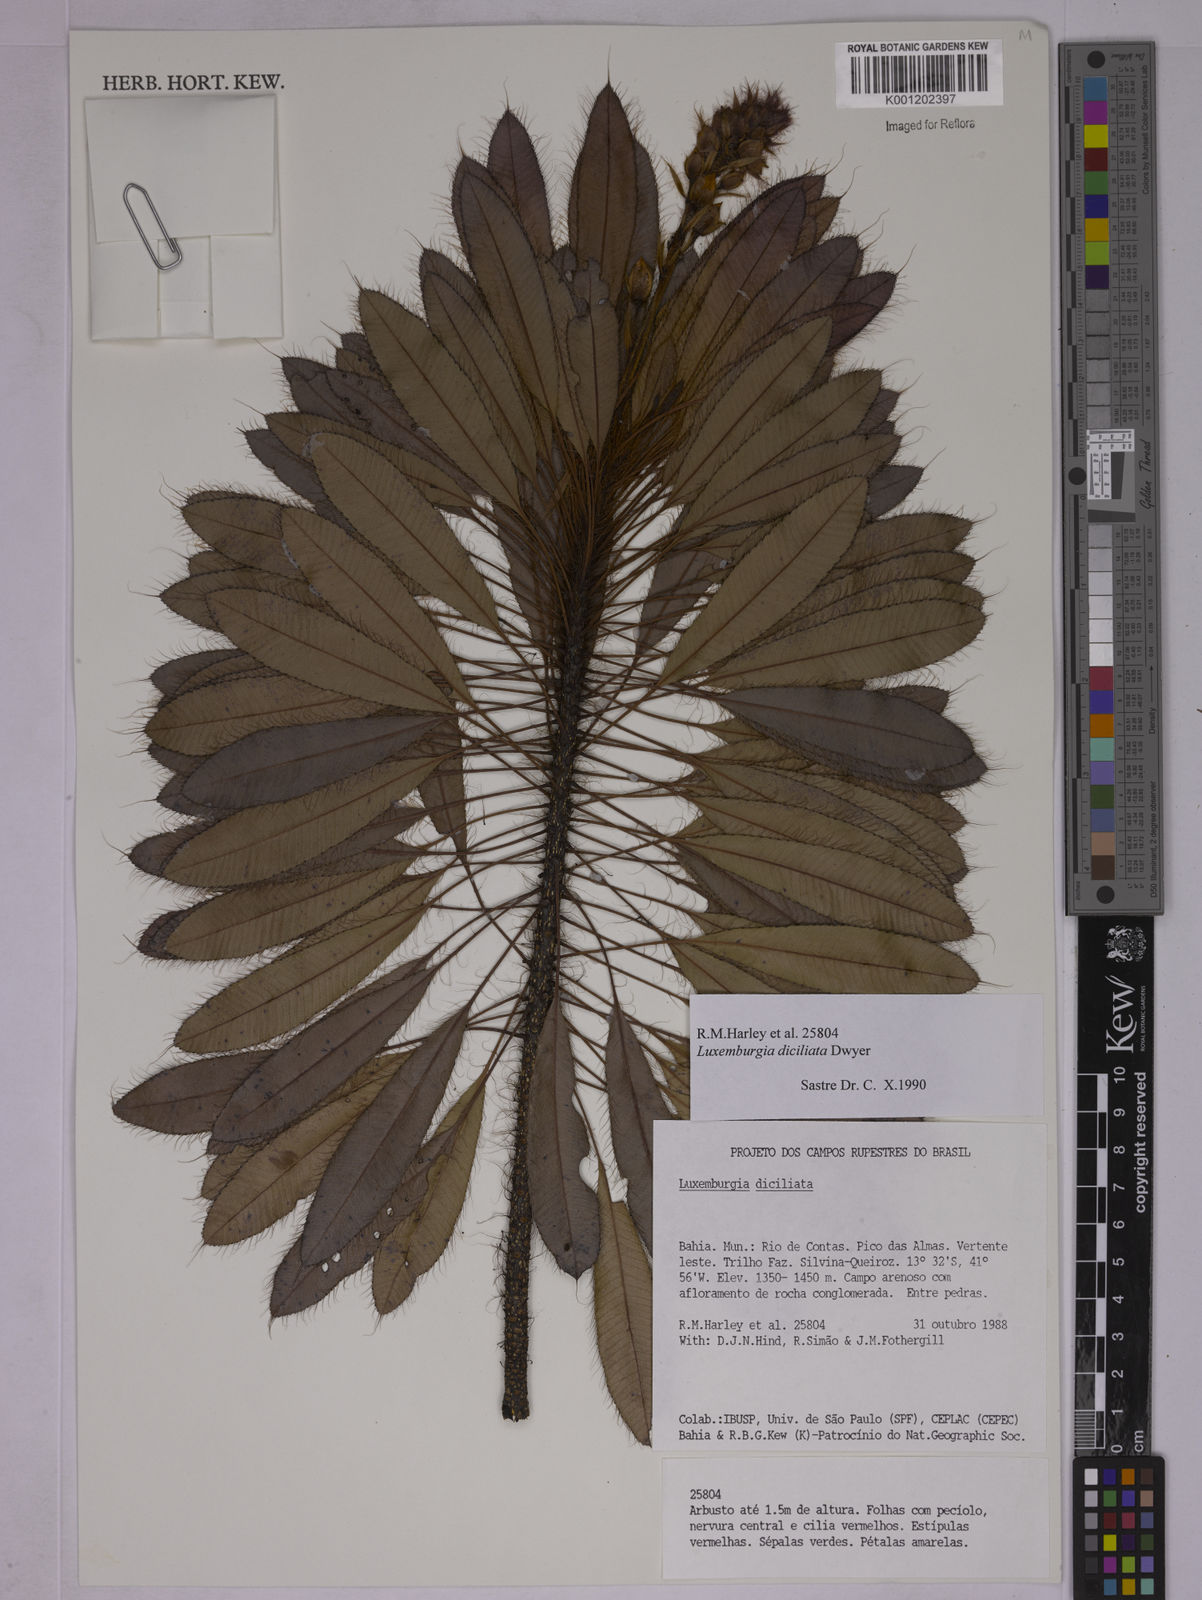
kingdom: Plantae
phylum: Tracheophyta
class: Magnoliopsida
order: Malpighiales
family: Ochnaceae
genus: Luxemburgia
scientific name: Luxemburgia diciliata
